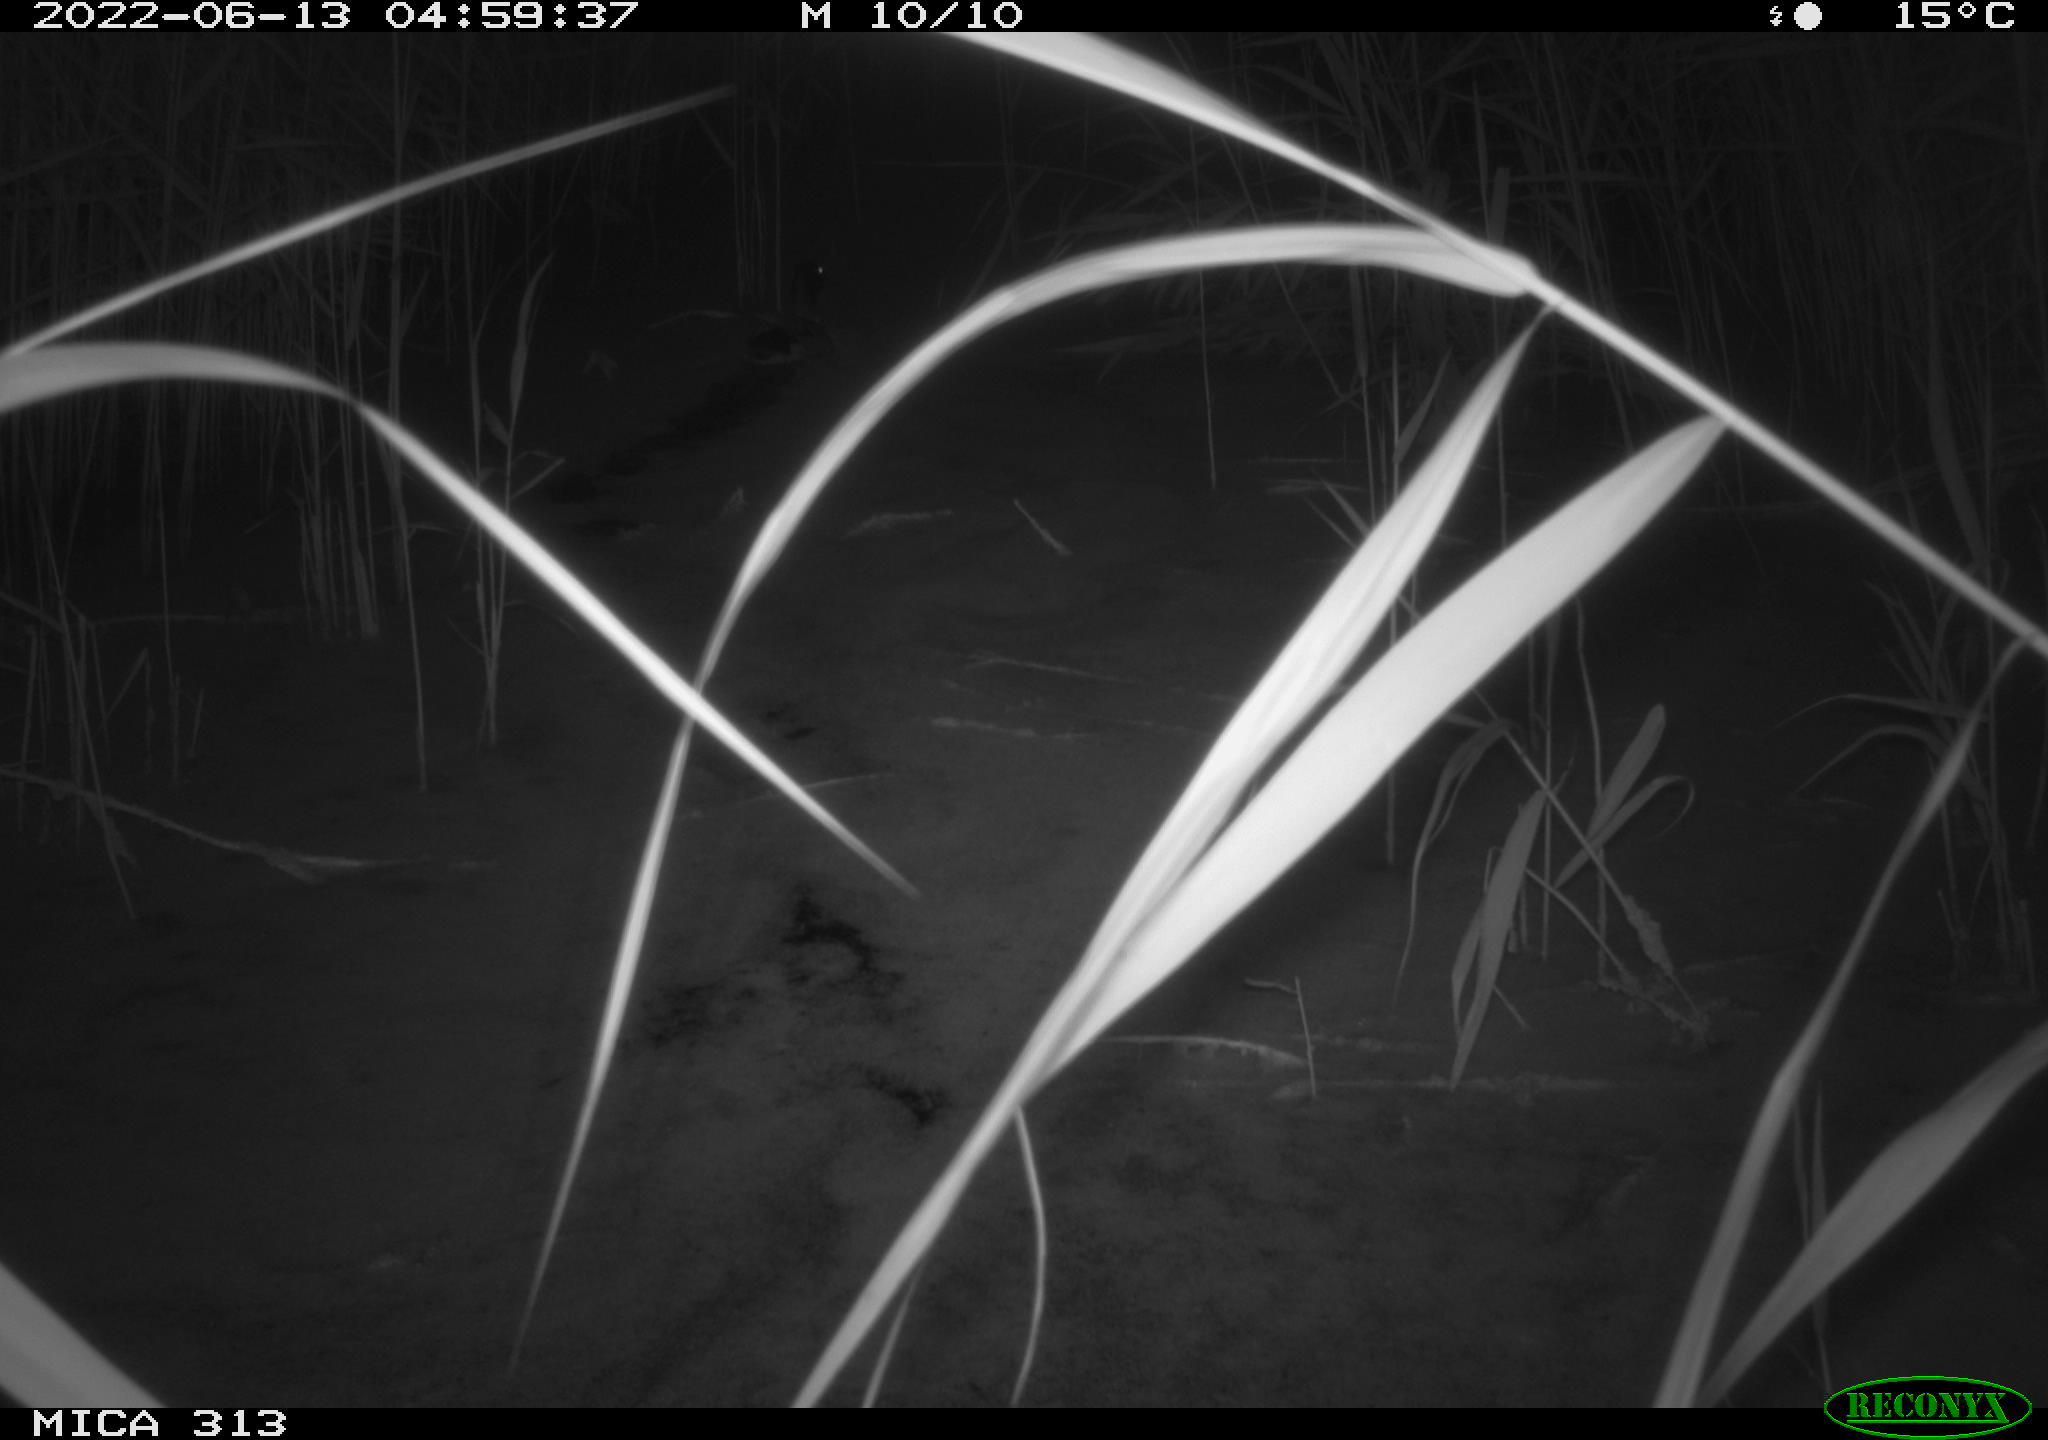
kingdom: Animalia
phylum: Chordata
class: Aves
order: Anseriformes
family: Anatidae
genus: Anas
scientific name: Anas platyrhynchos
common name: Mallard
